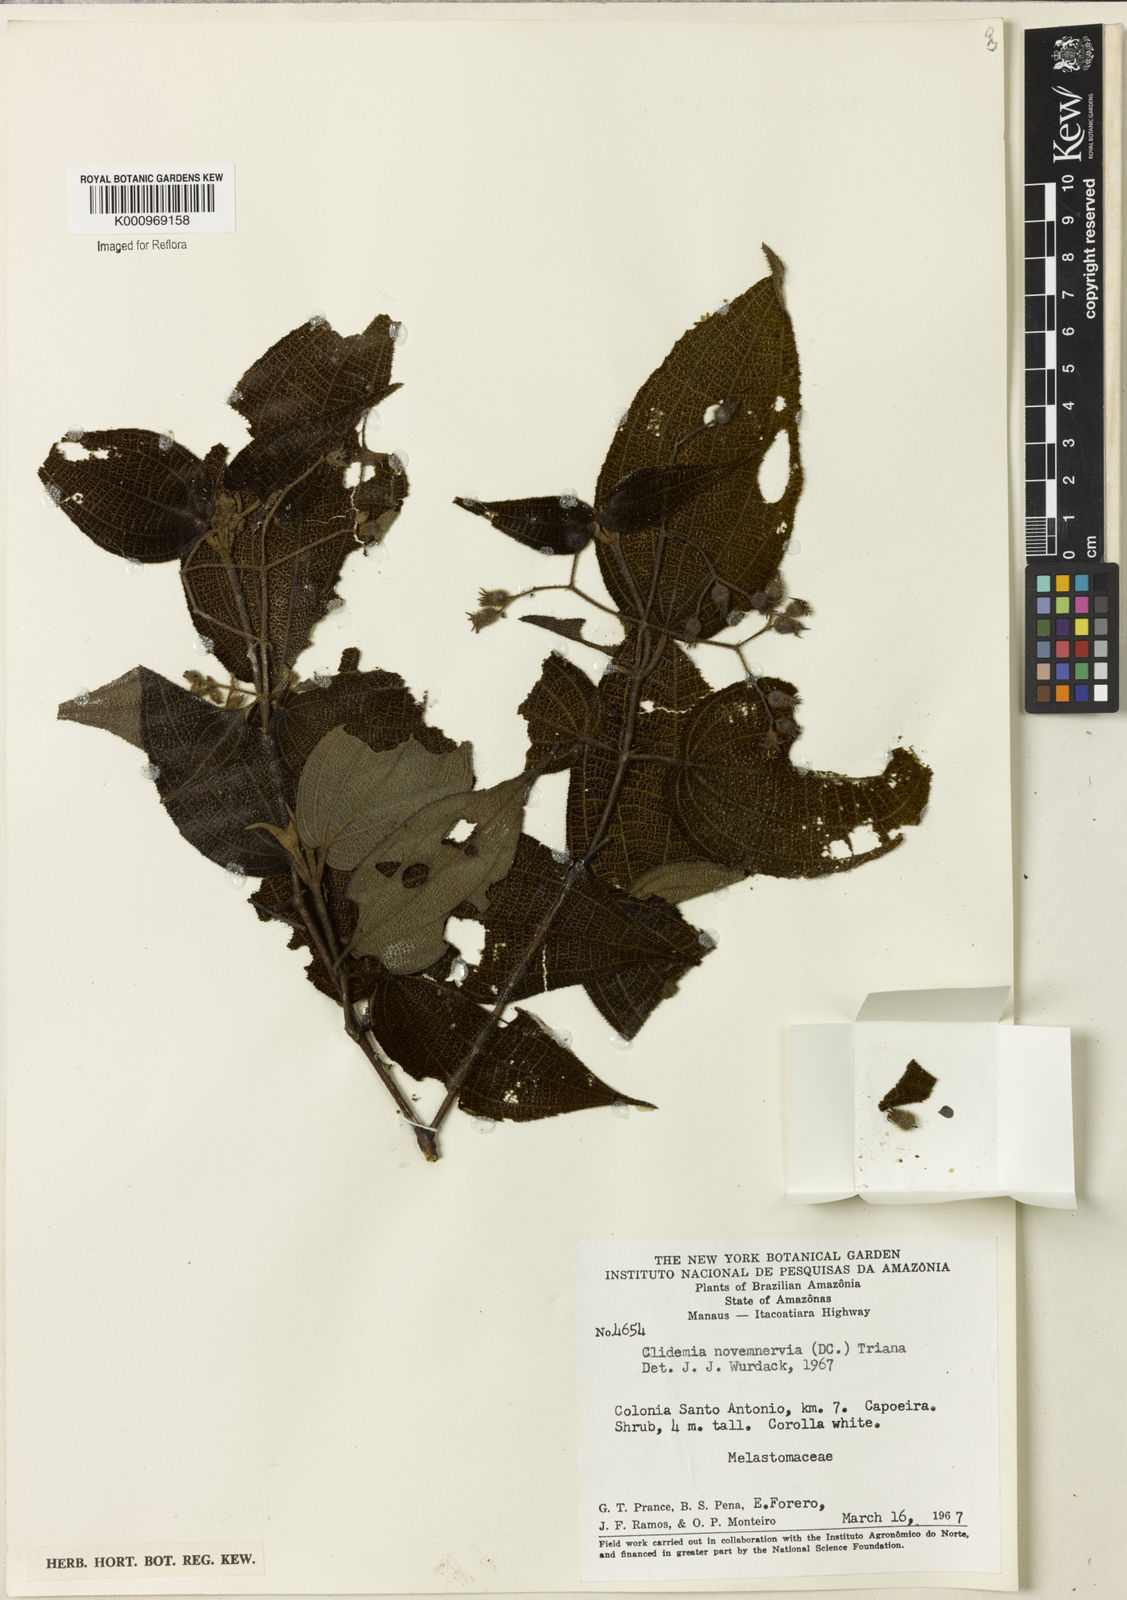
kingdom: Plantae
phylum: Tracheophyta
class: Magnoliopsida
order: Myrtales
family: Melastomataceae
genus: Miconia
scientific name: Miconia bullatifolia
